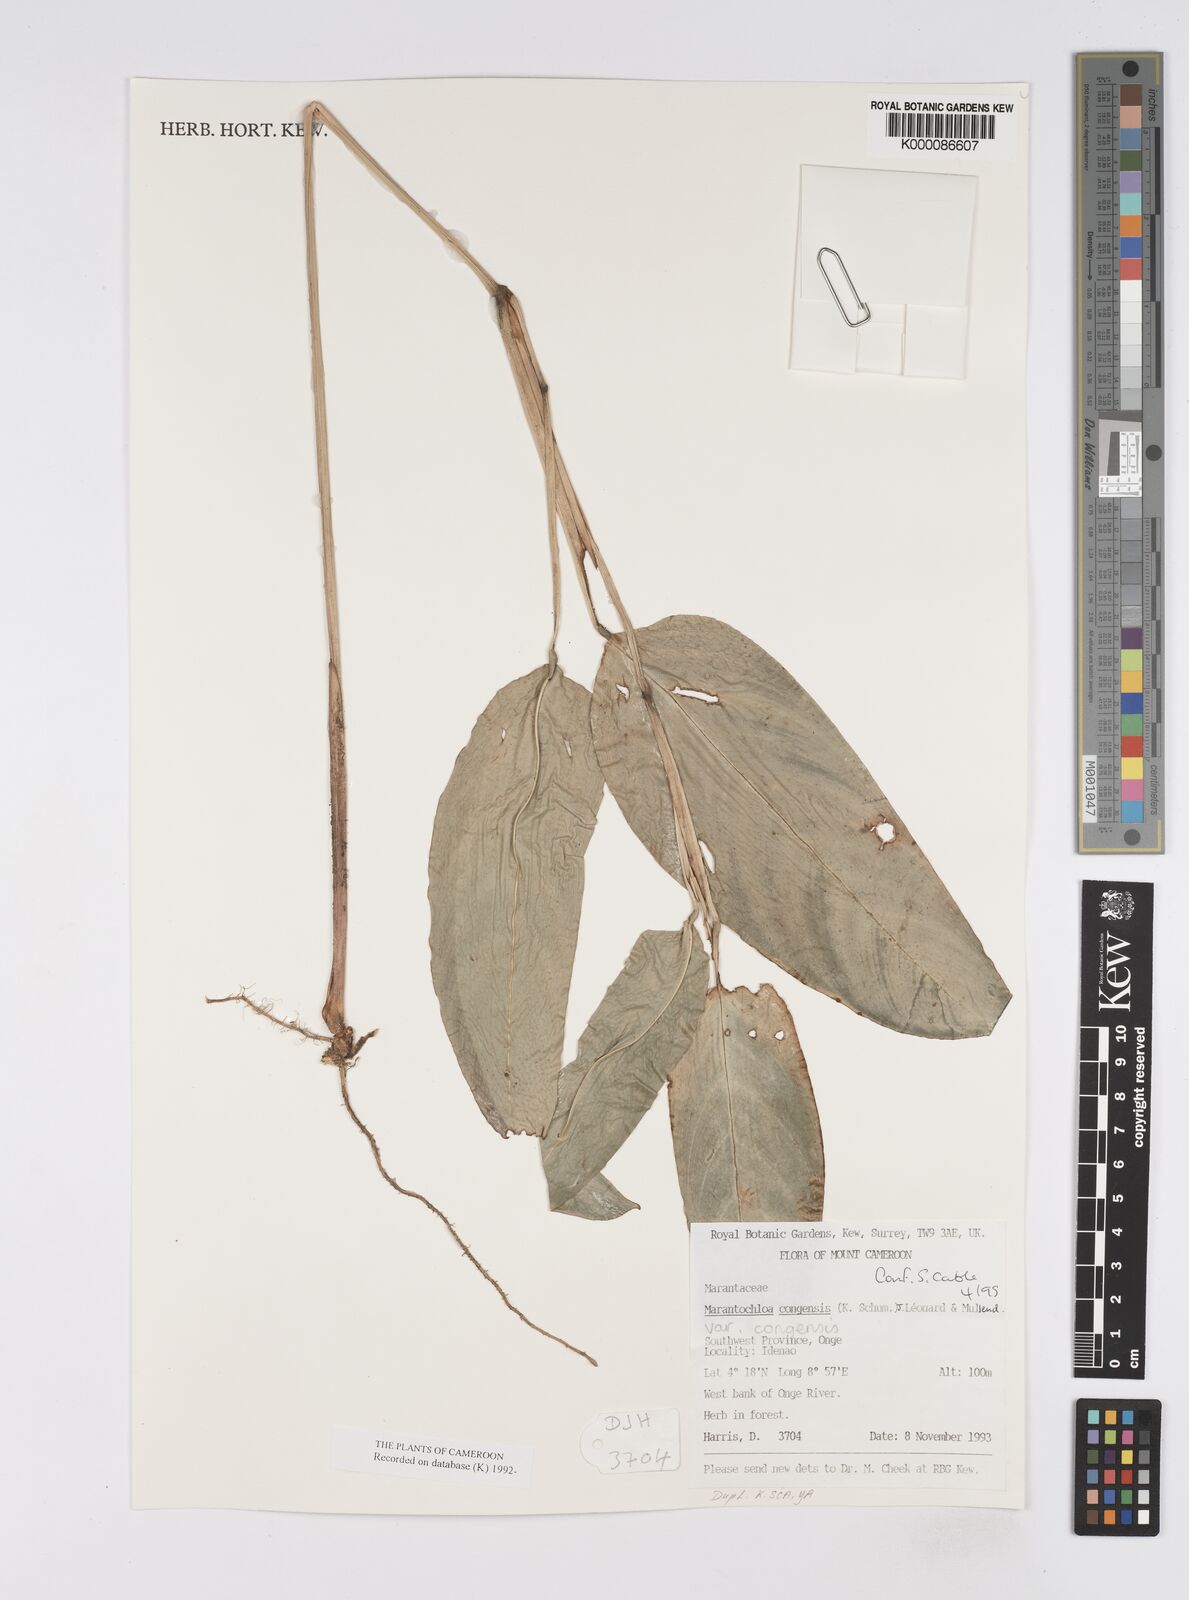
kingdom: Plantae
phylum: Tracheophyta
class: Liliopsida
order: Zingiberales
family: Marantaceae
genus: Marantochloa
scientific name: Marantochloa
